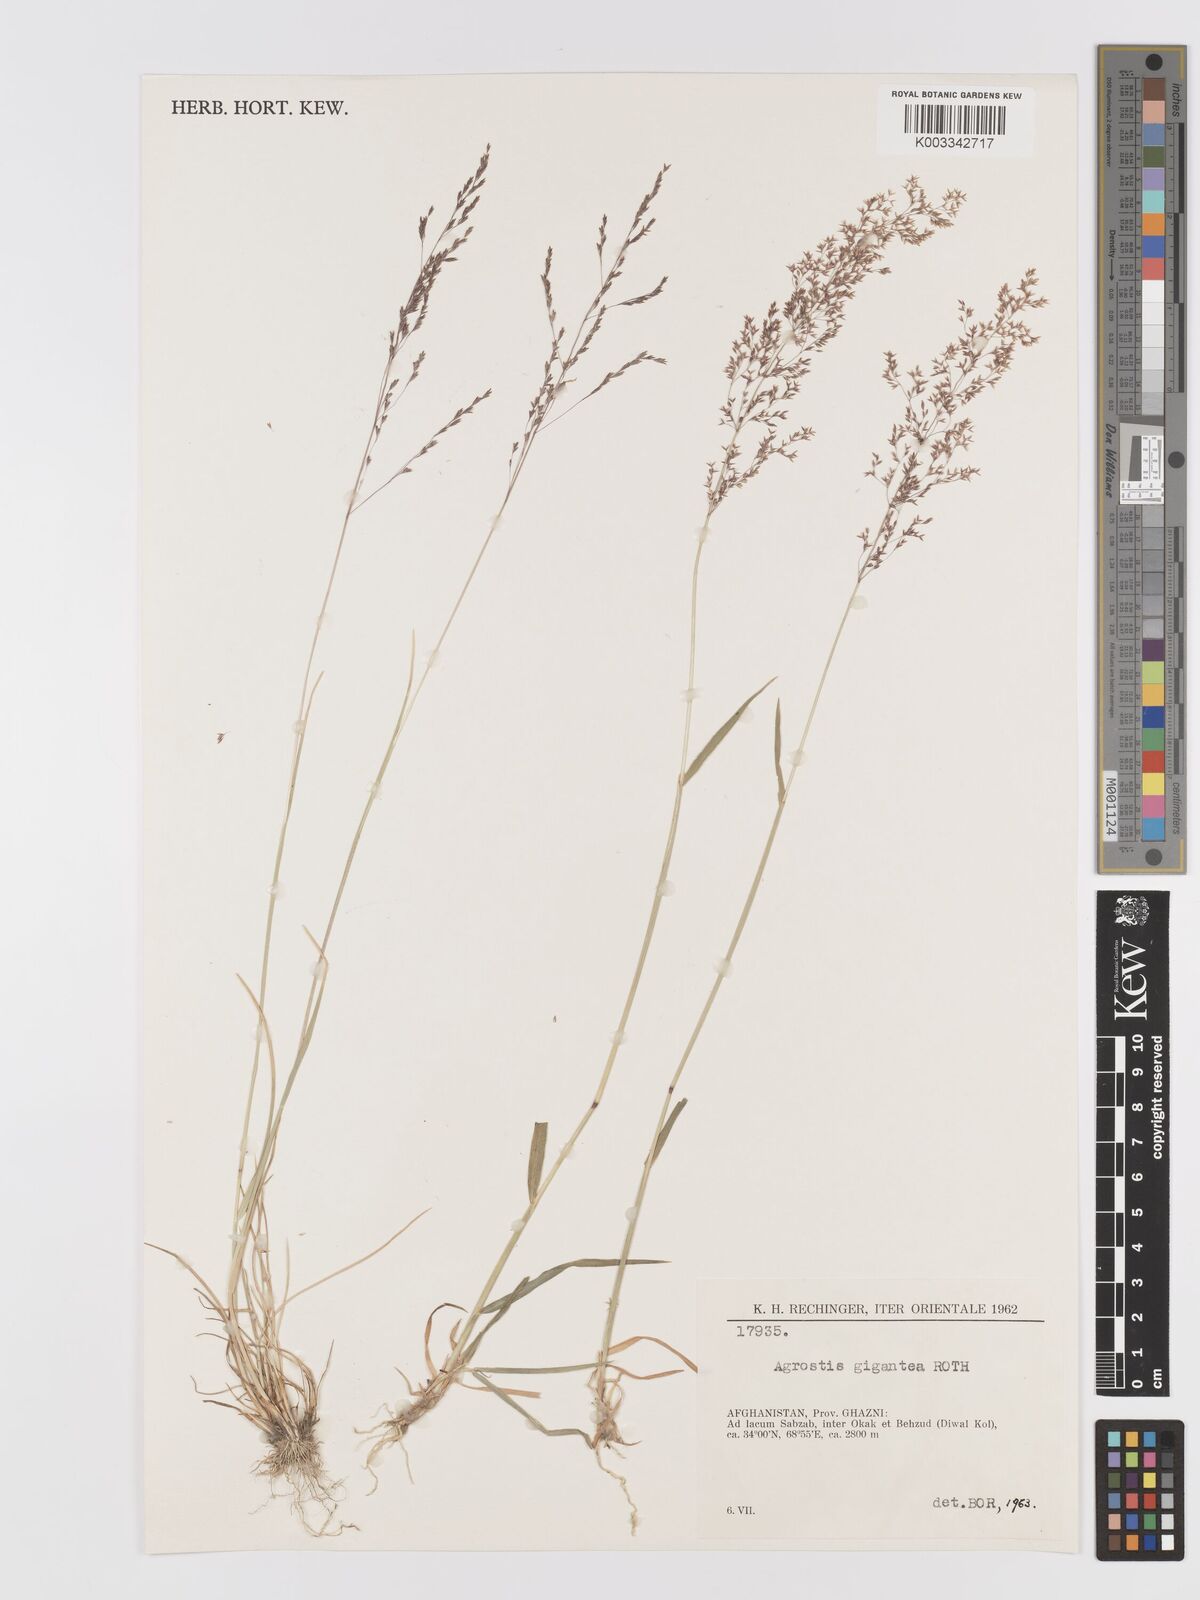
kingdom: Plantae
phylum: Tracheophyta
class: Liliopsida
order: Poales
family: Poaceae
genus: Agrostis
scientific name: Agrostis gigantea
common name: Black bent
